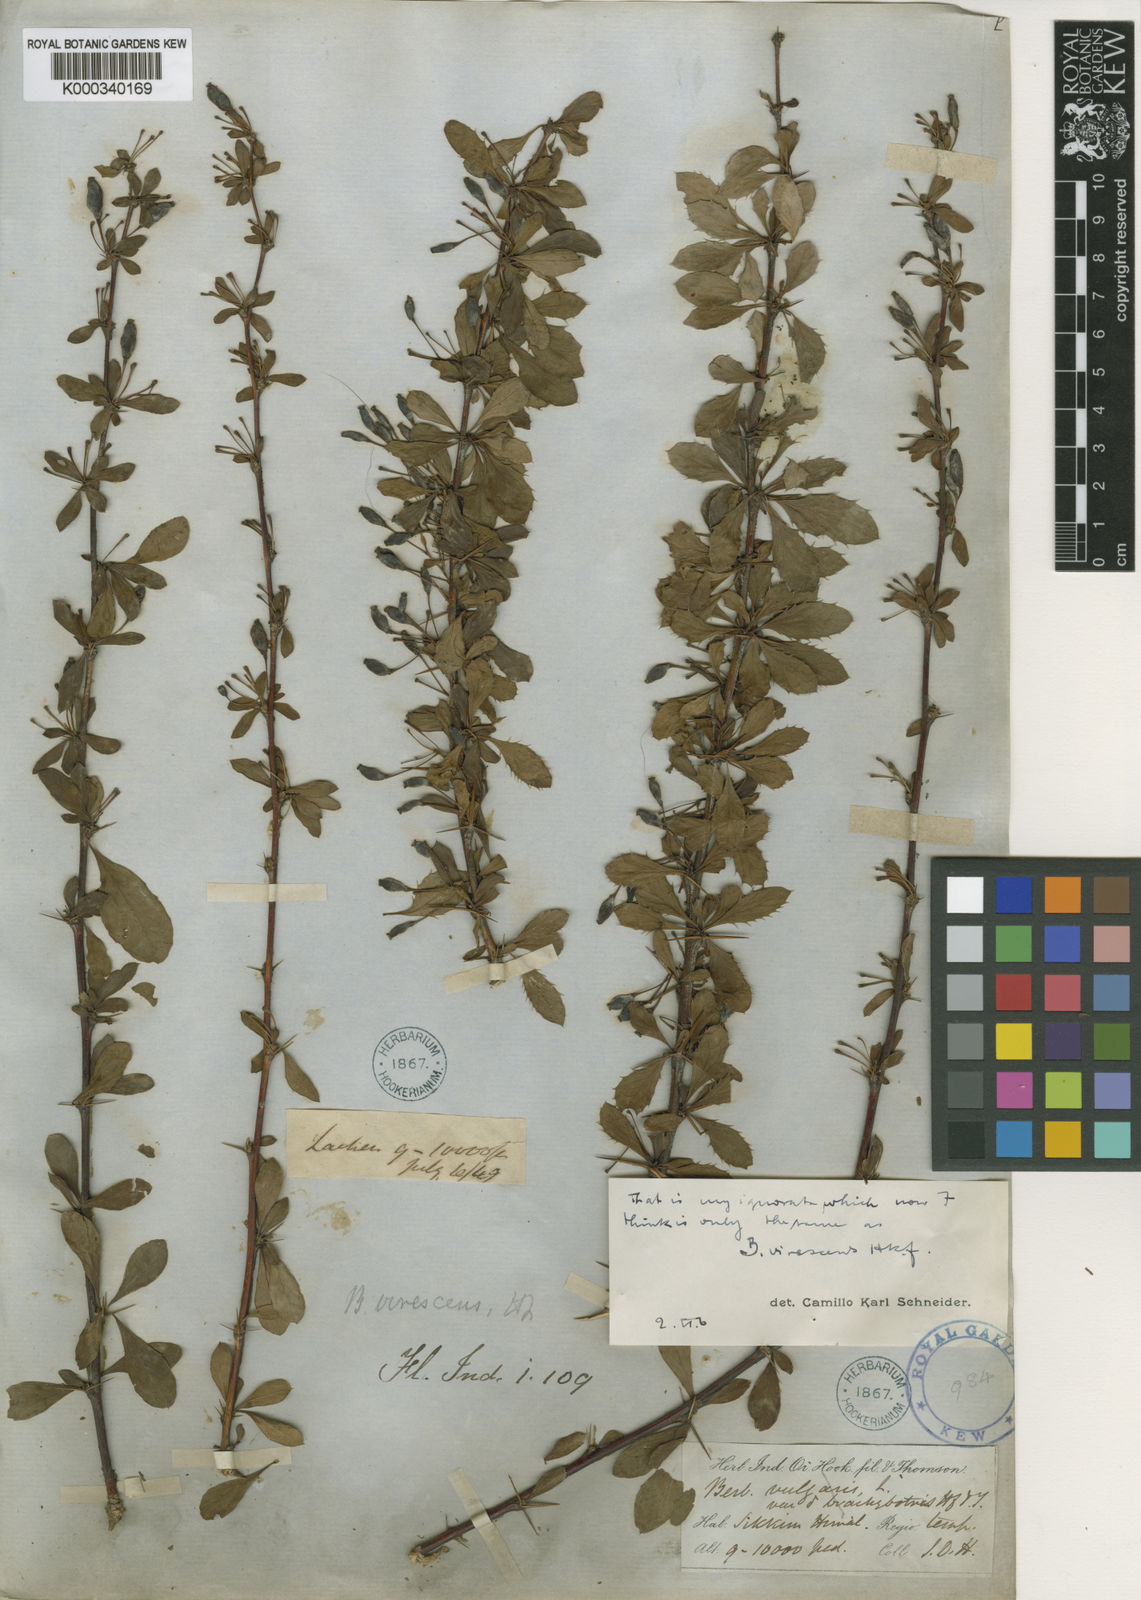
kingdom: Plantae
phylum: Tracheophyta
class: Magnoliopsida
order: Ranunculales
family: Berberidaceae
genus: Berberis
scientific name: Berberis virescens
